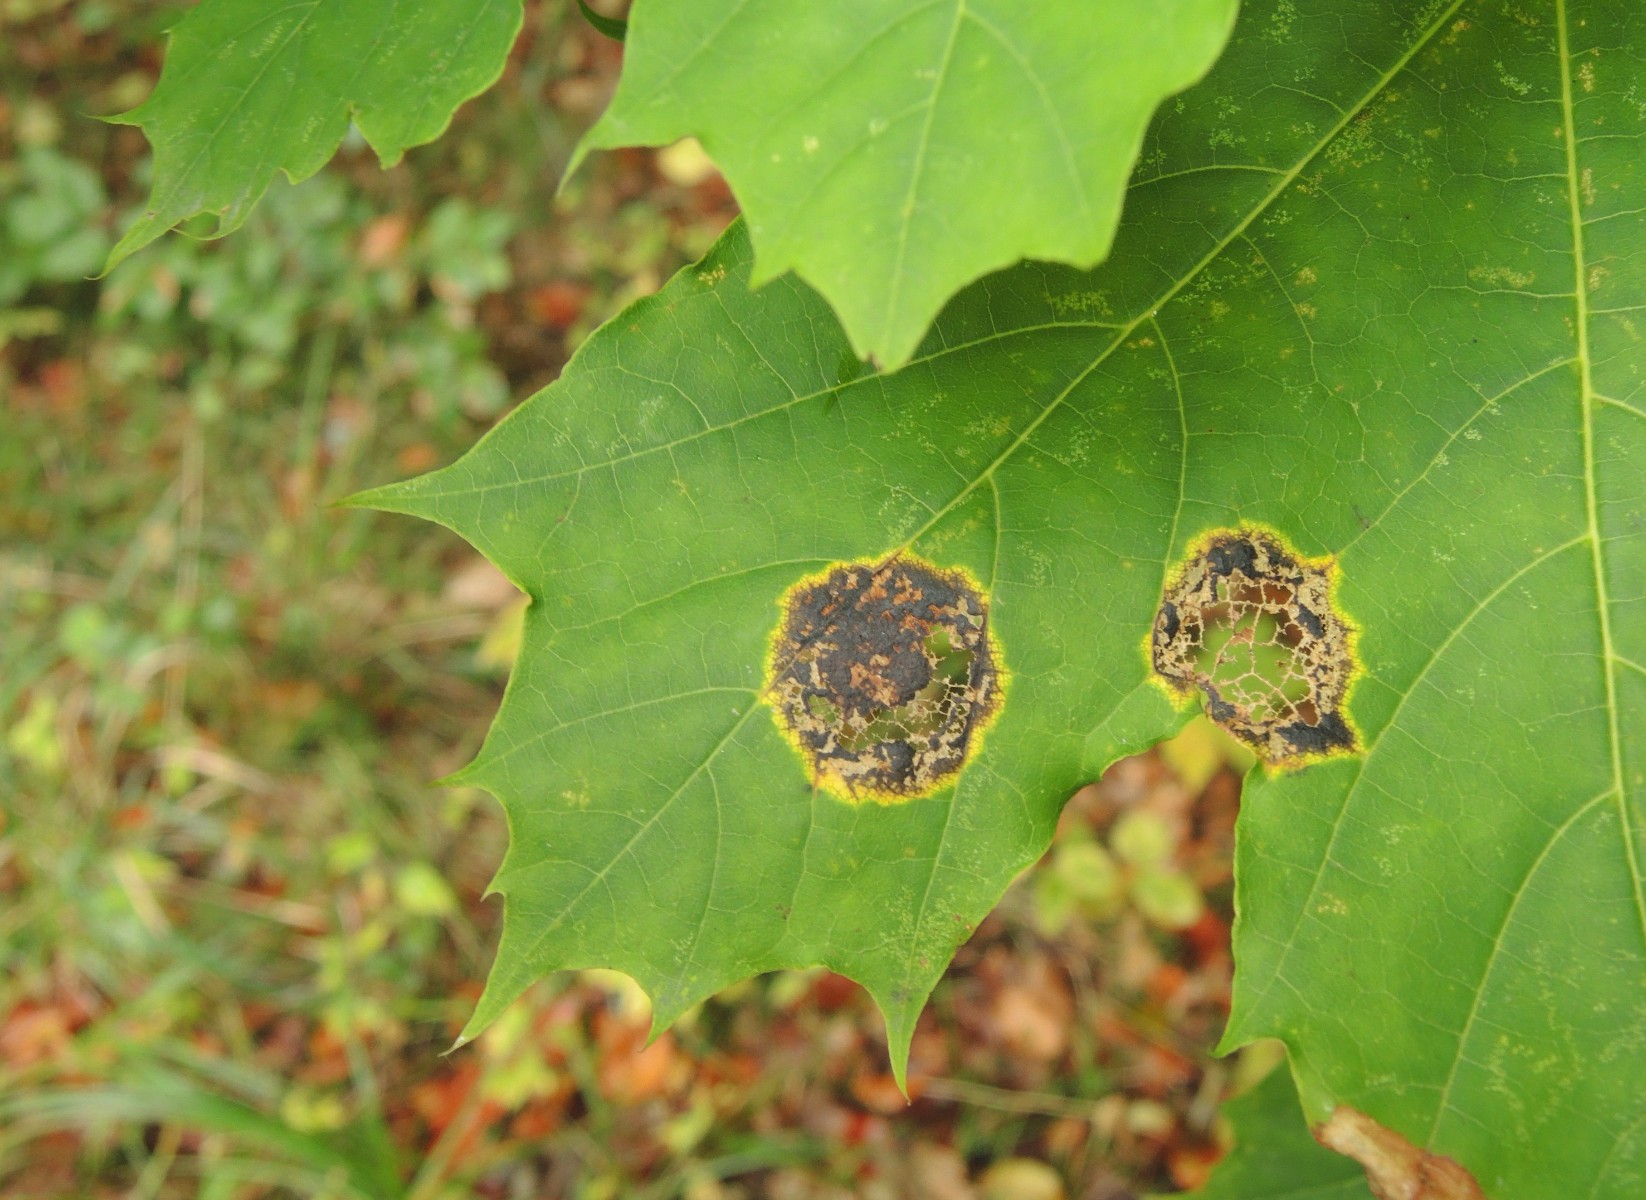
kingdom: Fungi
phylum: Ascomycota
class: Leotiomycetes
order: Rhytismatales
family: Rhytismataceae
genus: Rhytisma
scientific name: Rhytisma acerinum
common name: ahorn-rynkeplet
